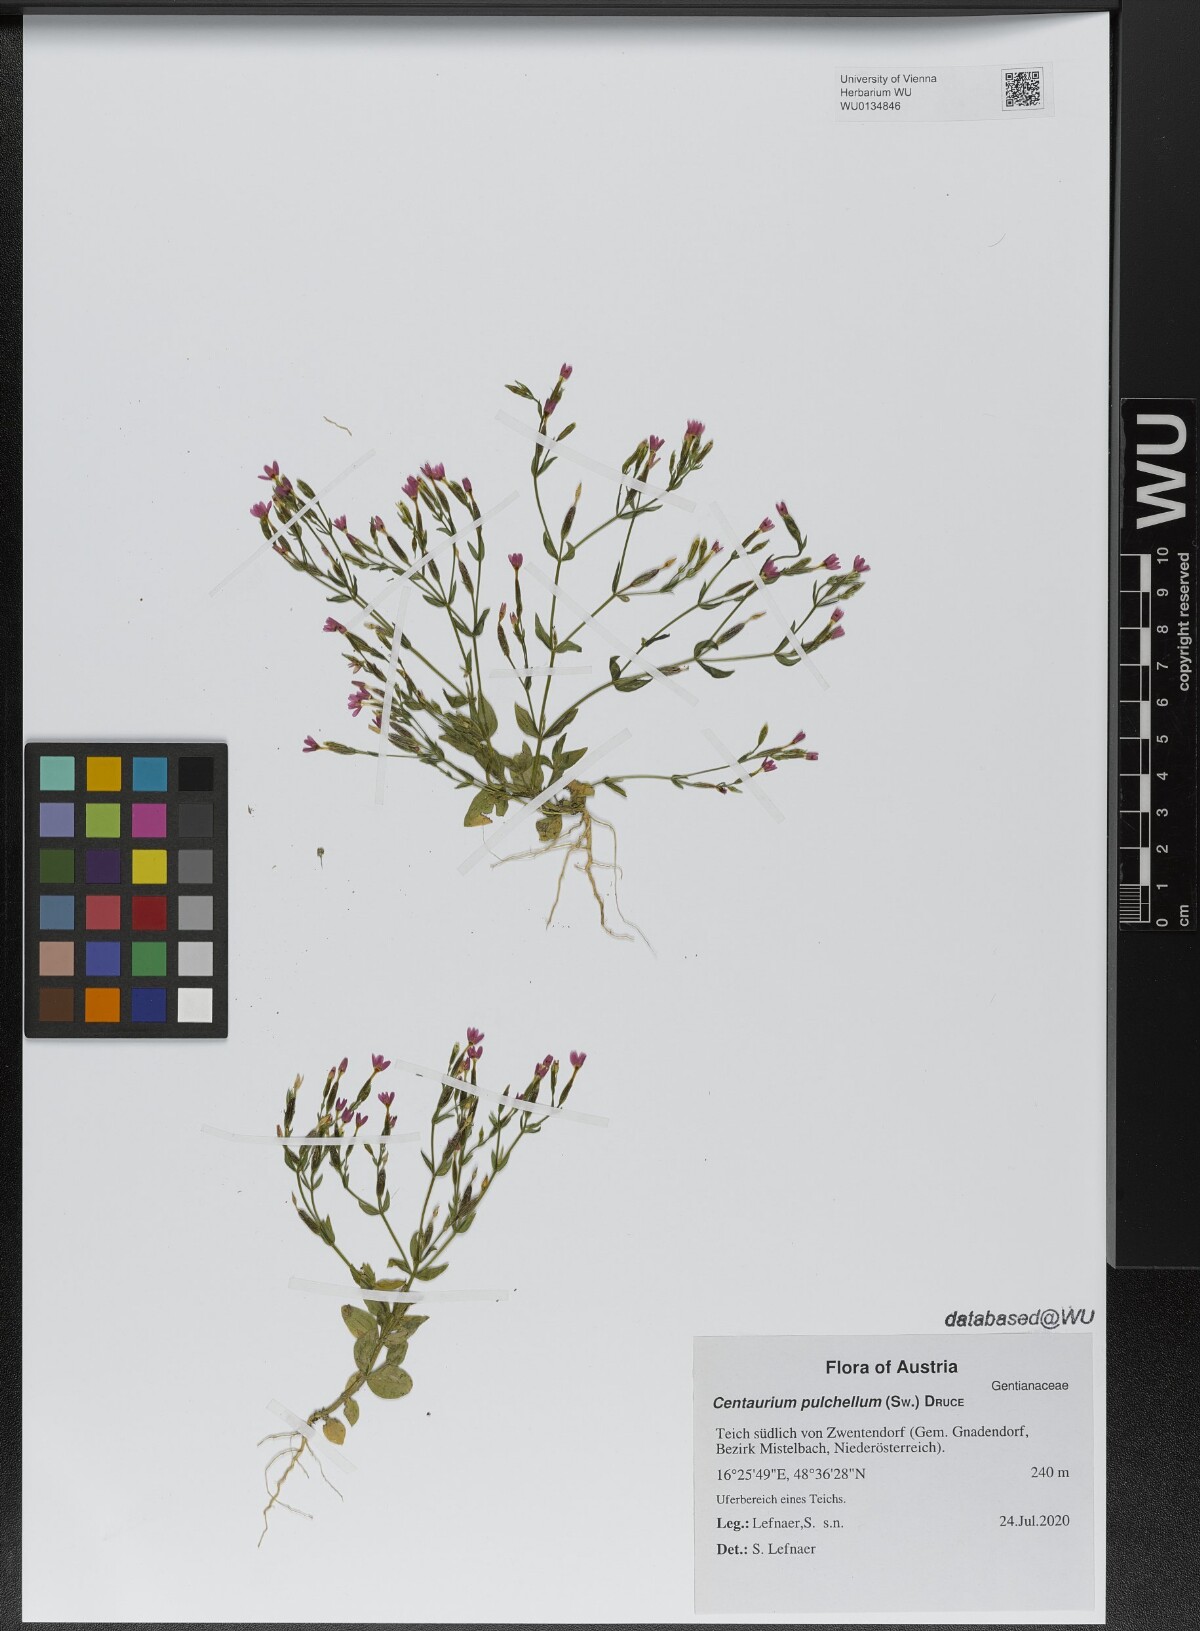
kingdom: Plantae
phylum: Tracheophyta
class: Magnoliopsida
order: Gentianales
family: Gentianaceae
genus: Centaurium
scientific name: Centaurium pulchellum
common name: Lesser centaury
